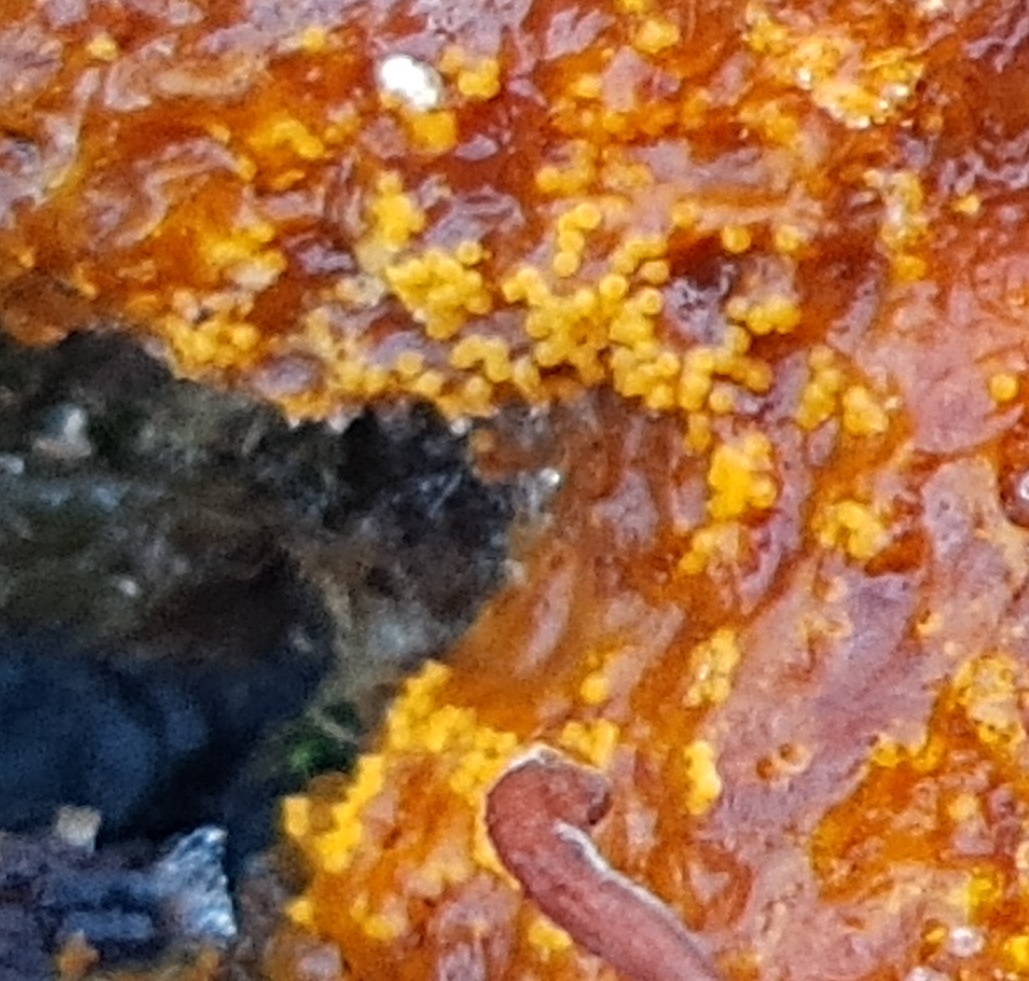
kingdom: Fungi
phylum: Ascomycota
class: Sordariomycetes
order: Hypocreales
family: Hypocreaceae
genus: Hypomyces
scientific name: Hypomyces aurantius
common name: almindelig snylteskorpe
